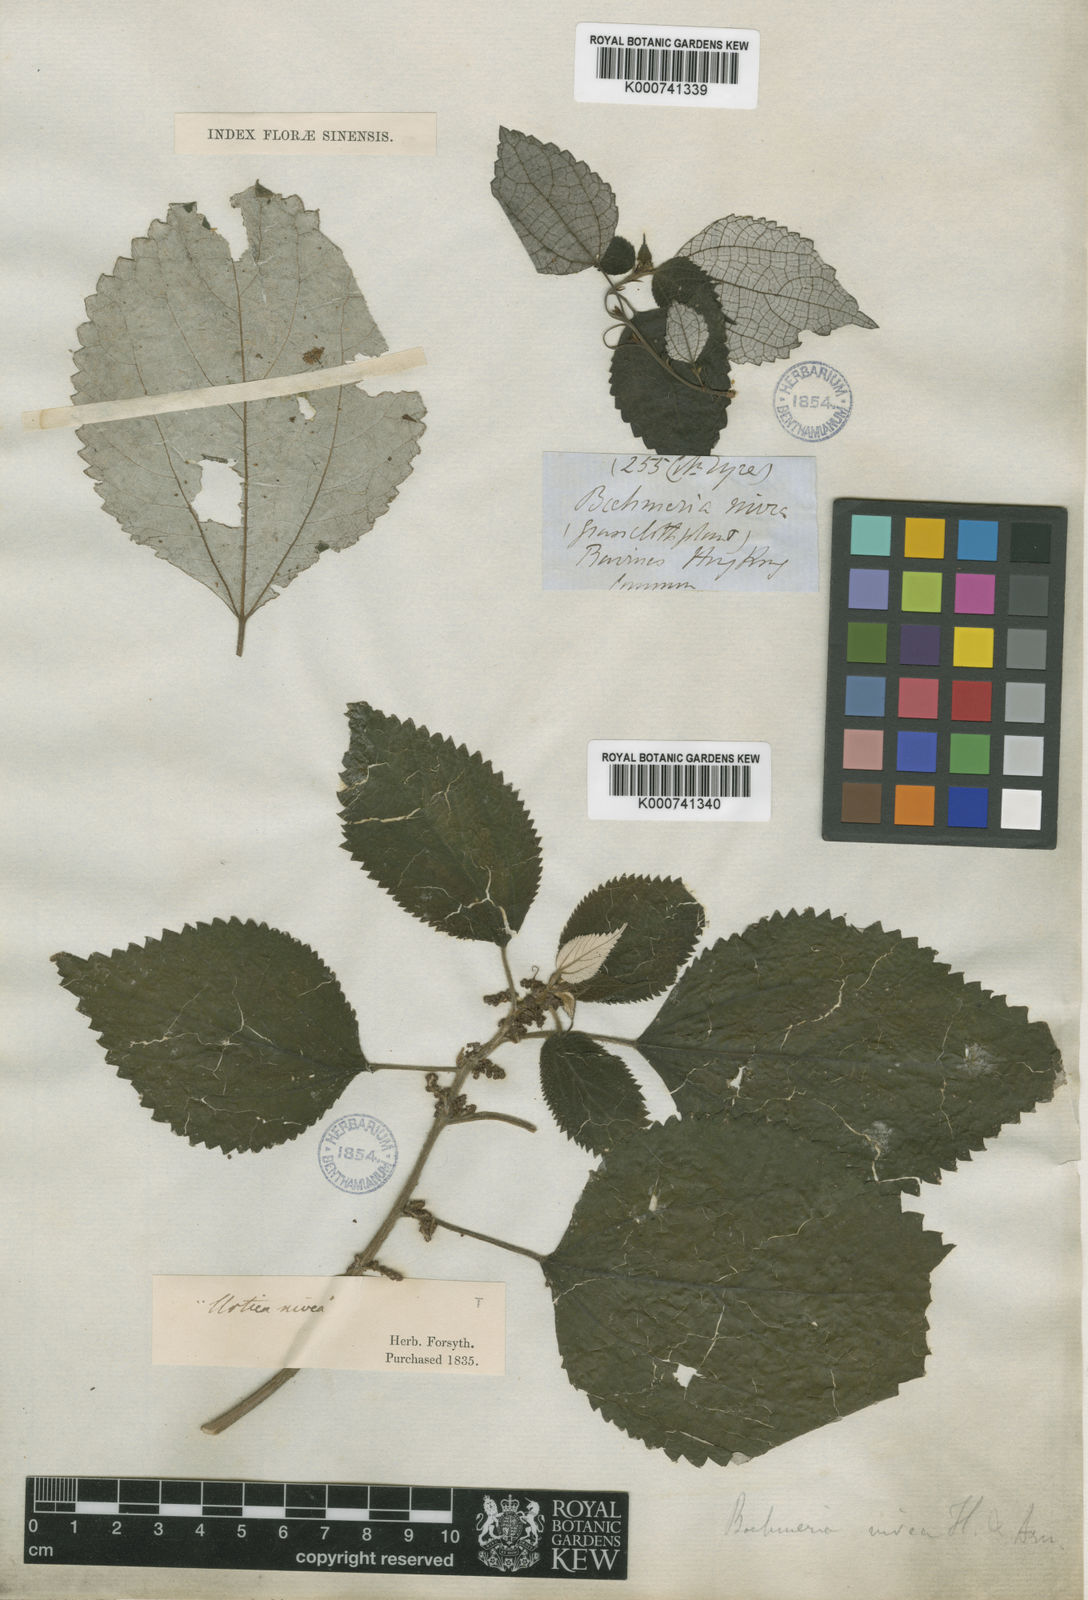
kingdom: Plantae
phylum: Tracheophyta
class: Magnoliopsida
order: Rosales
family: Urticaceae
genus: Boehmeria
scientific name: Boehmeria nivea
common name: Ramie chinese grass
